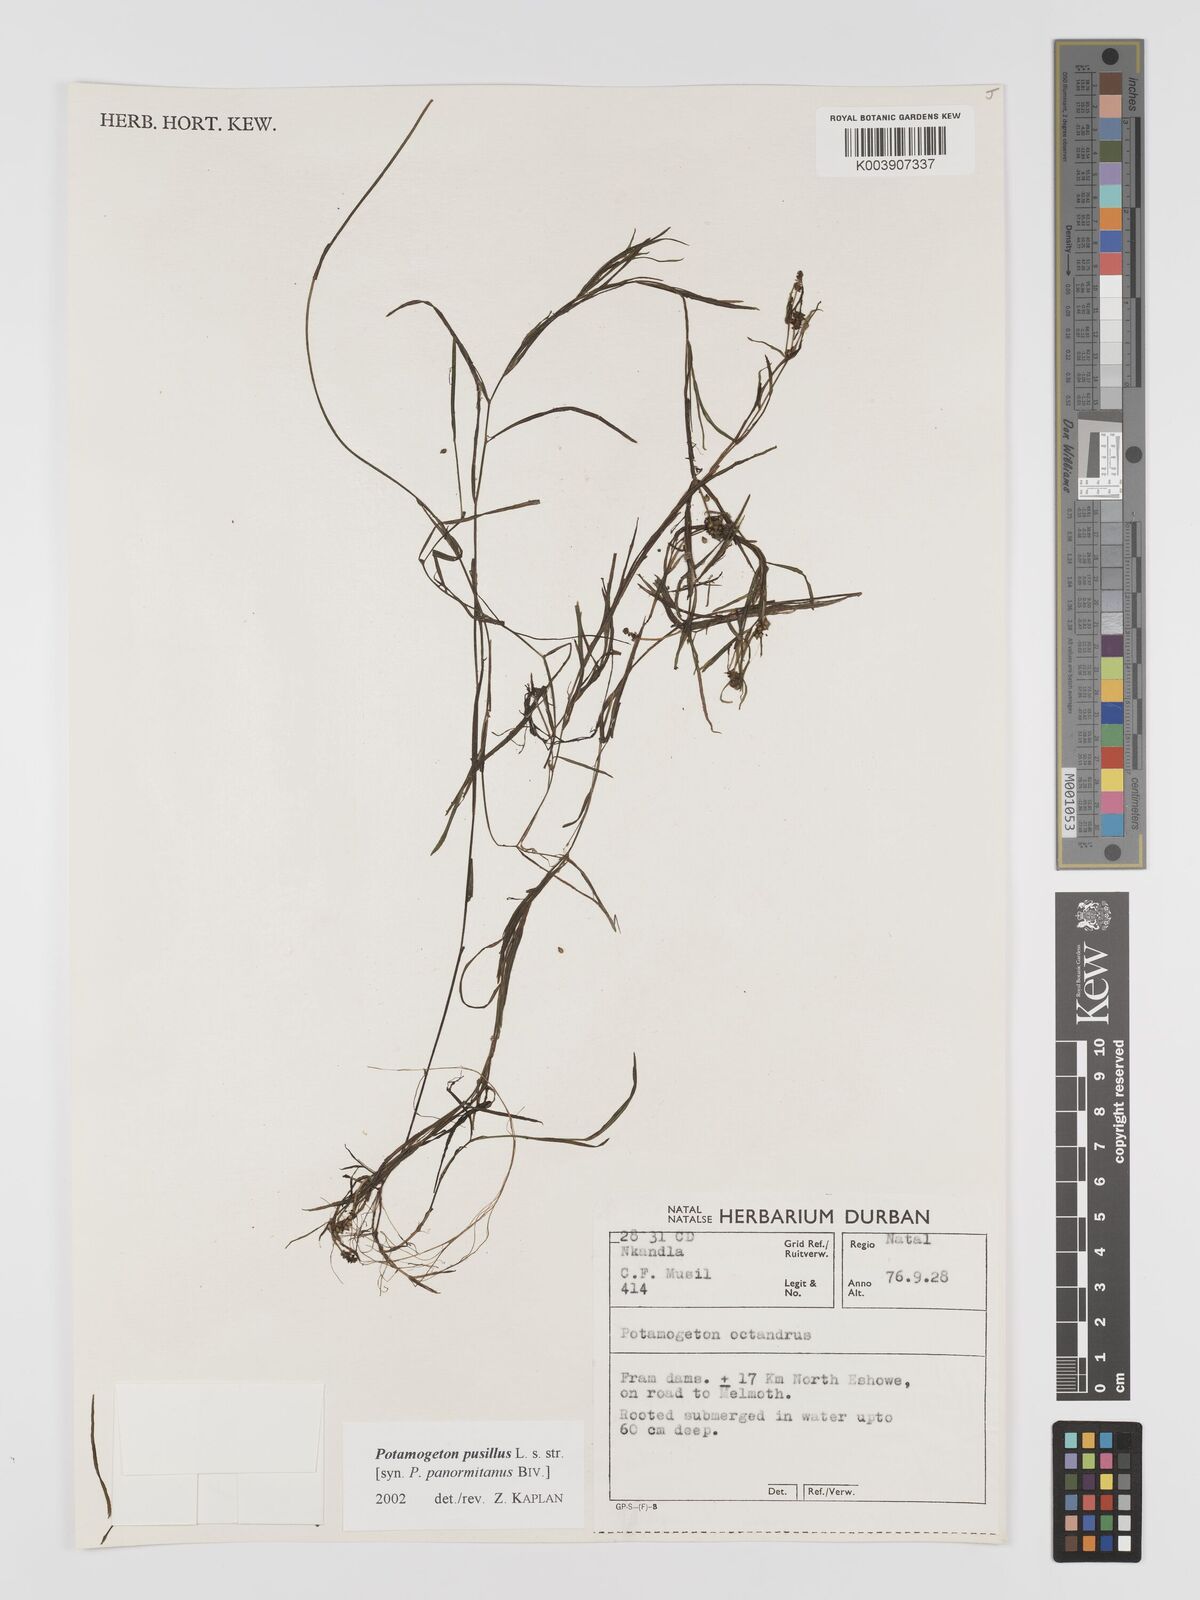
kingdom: Plantae
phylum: Tracheophyta
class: Liliopsida
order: Alismatales
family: Potamogetonaceae
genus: Potamogeton
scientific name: Potamogeton pusillus
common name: Lesser pondweed
